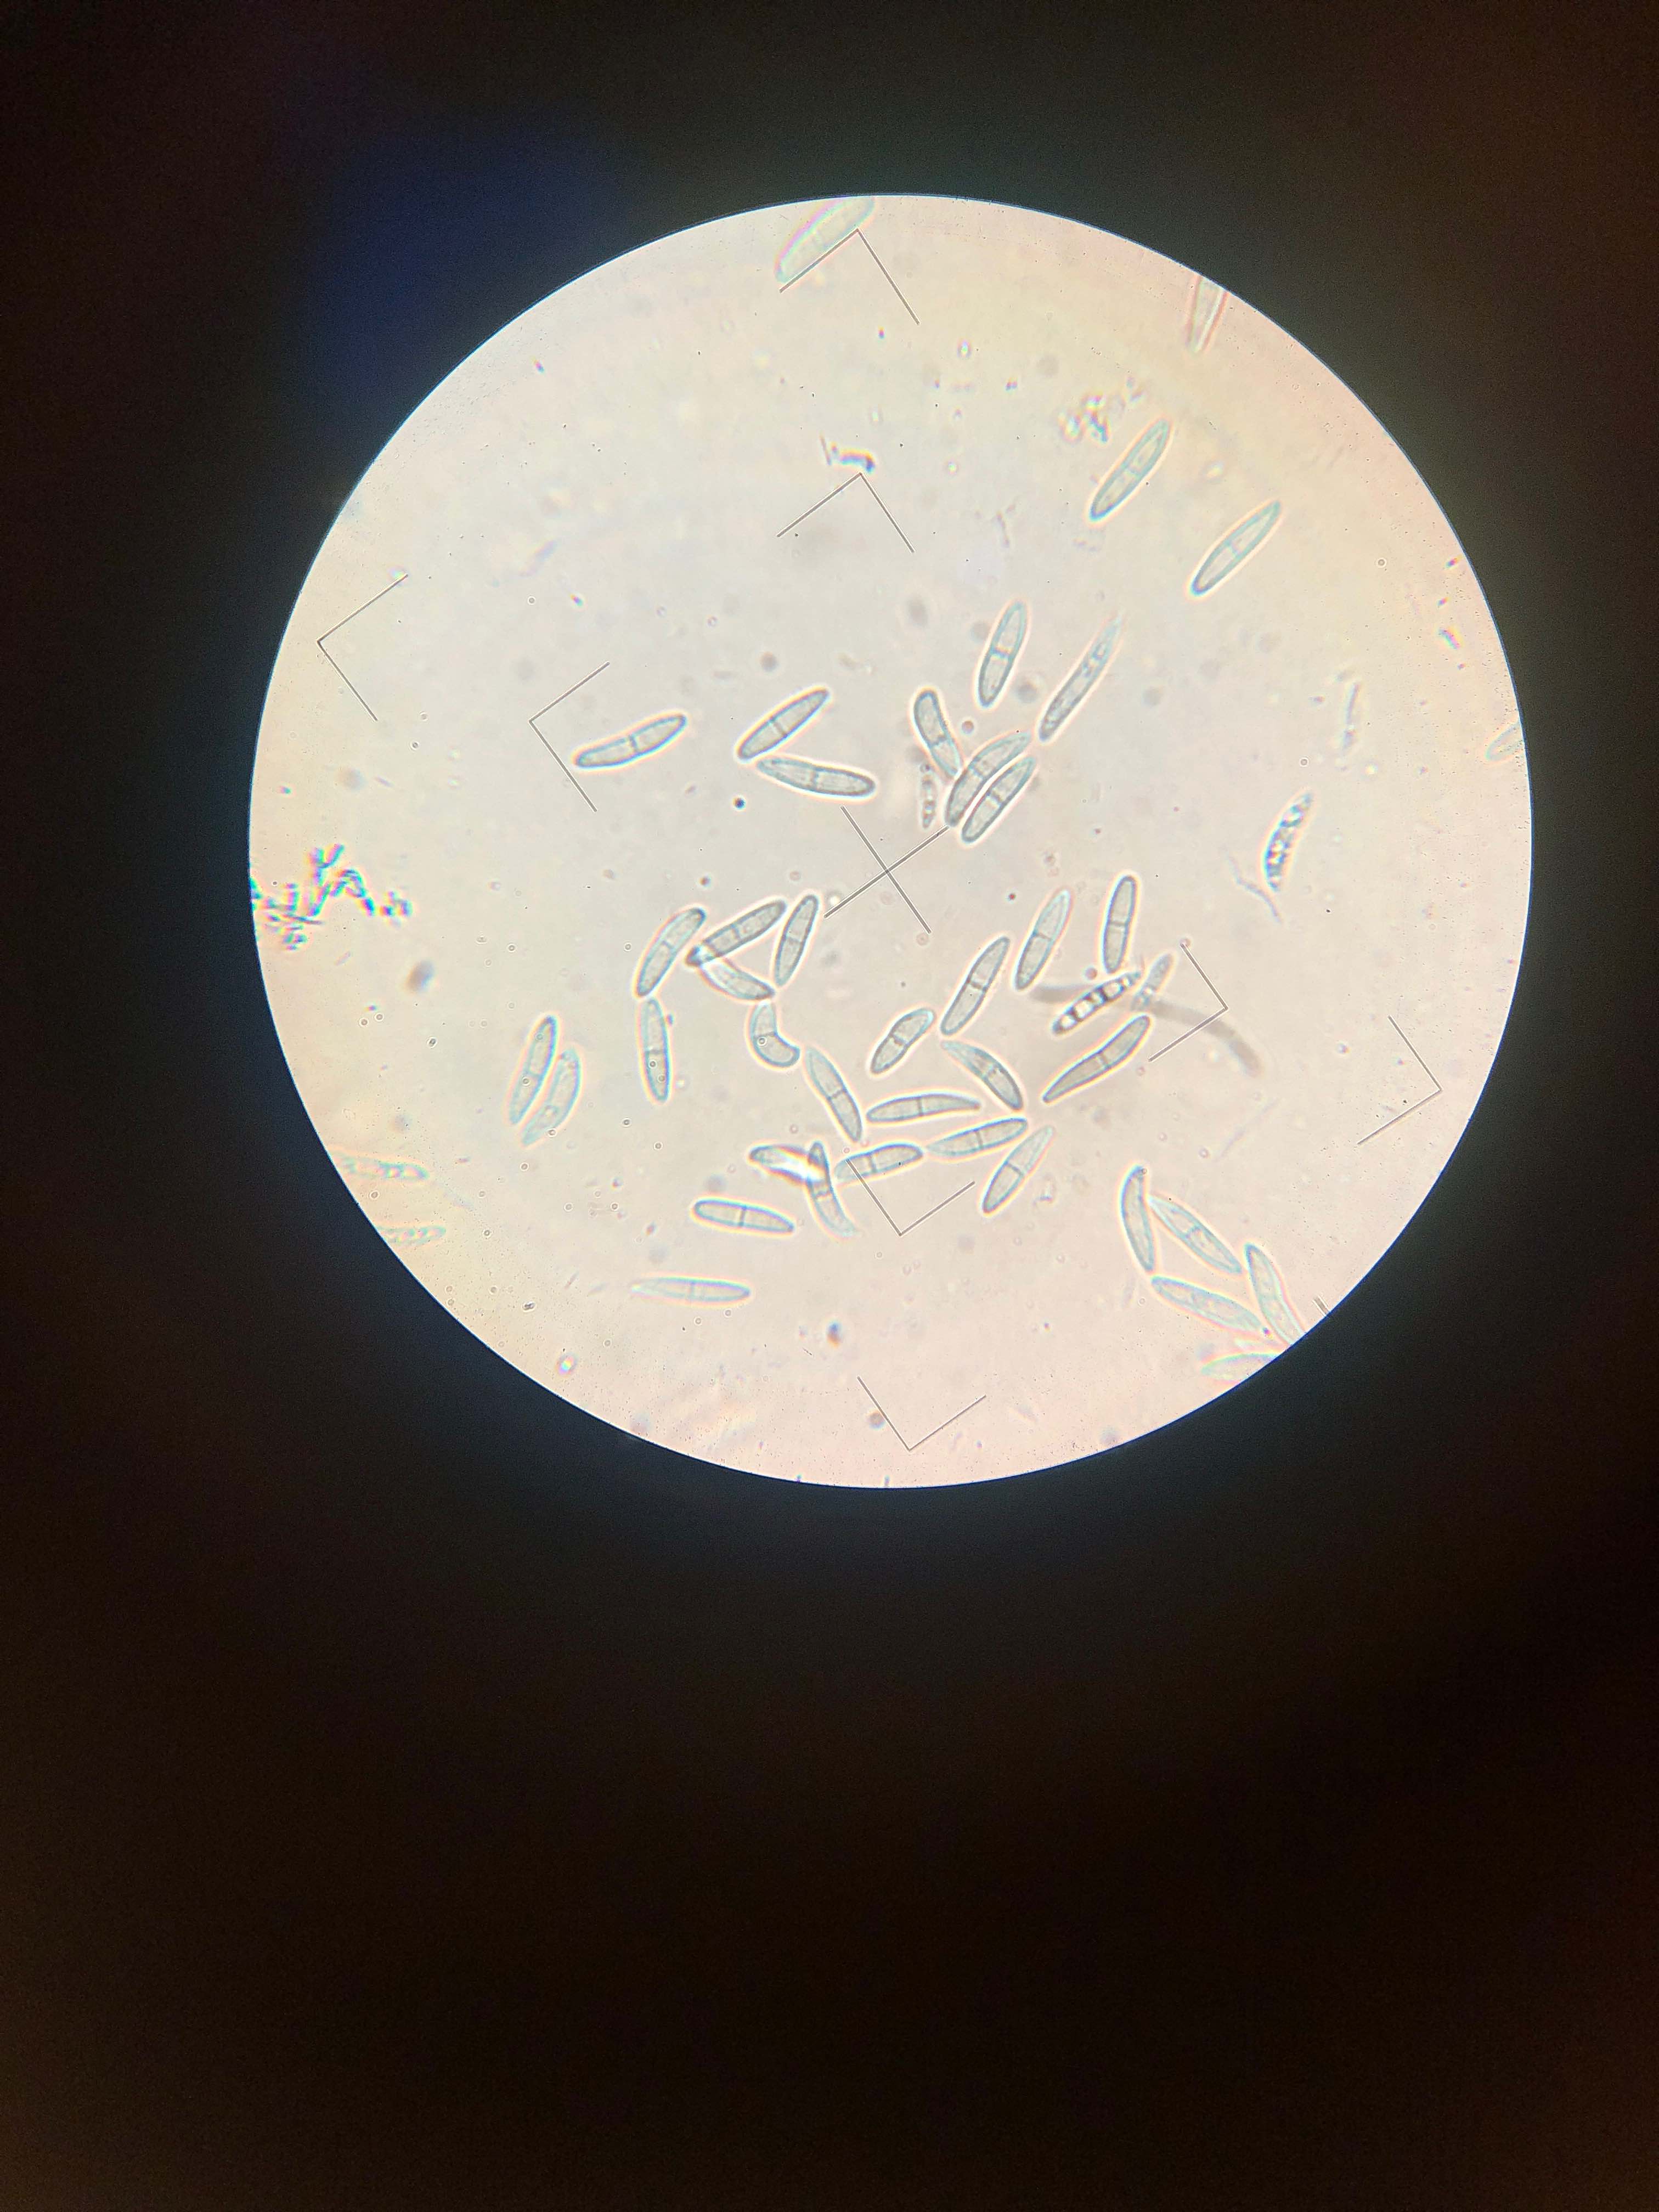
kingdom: Fungi
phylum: Ascomycota
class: Sordariomycetes
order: Diaporthales
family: Gnomoniaceae
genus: Sirococcus
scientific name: Sirococcus conigenus
